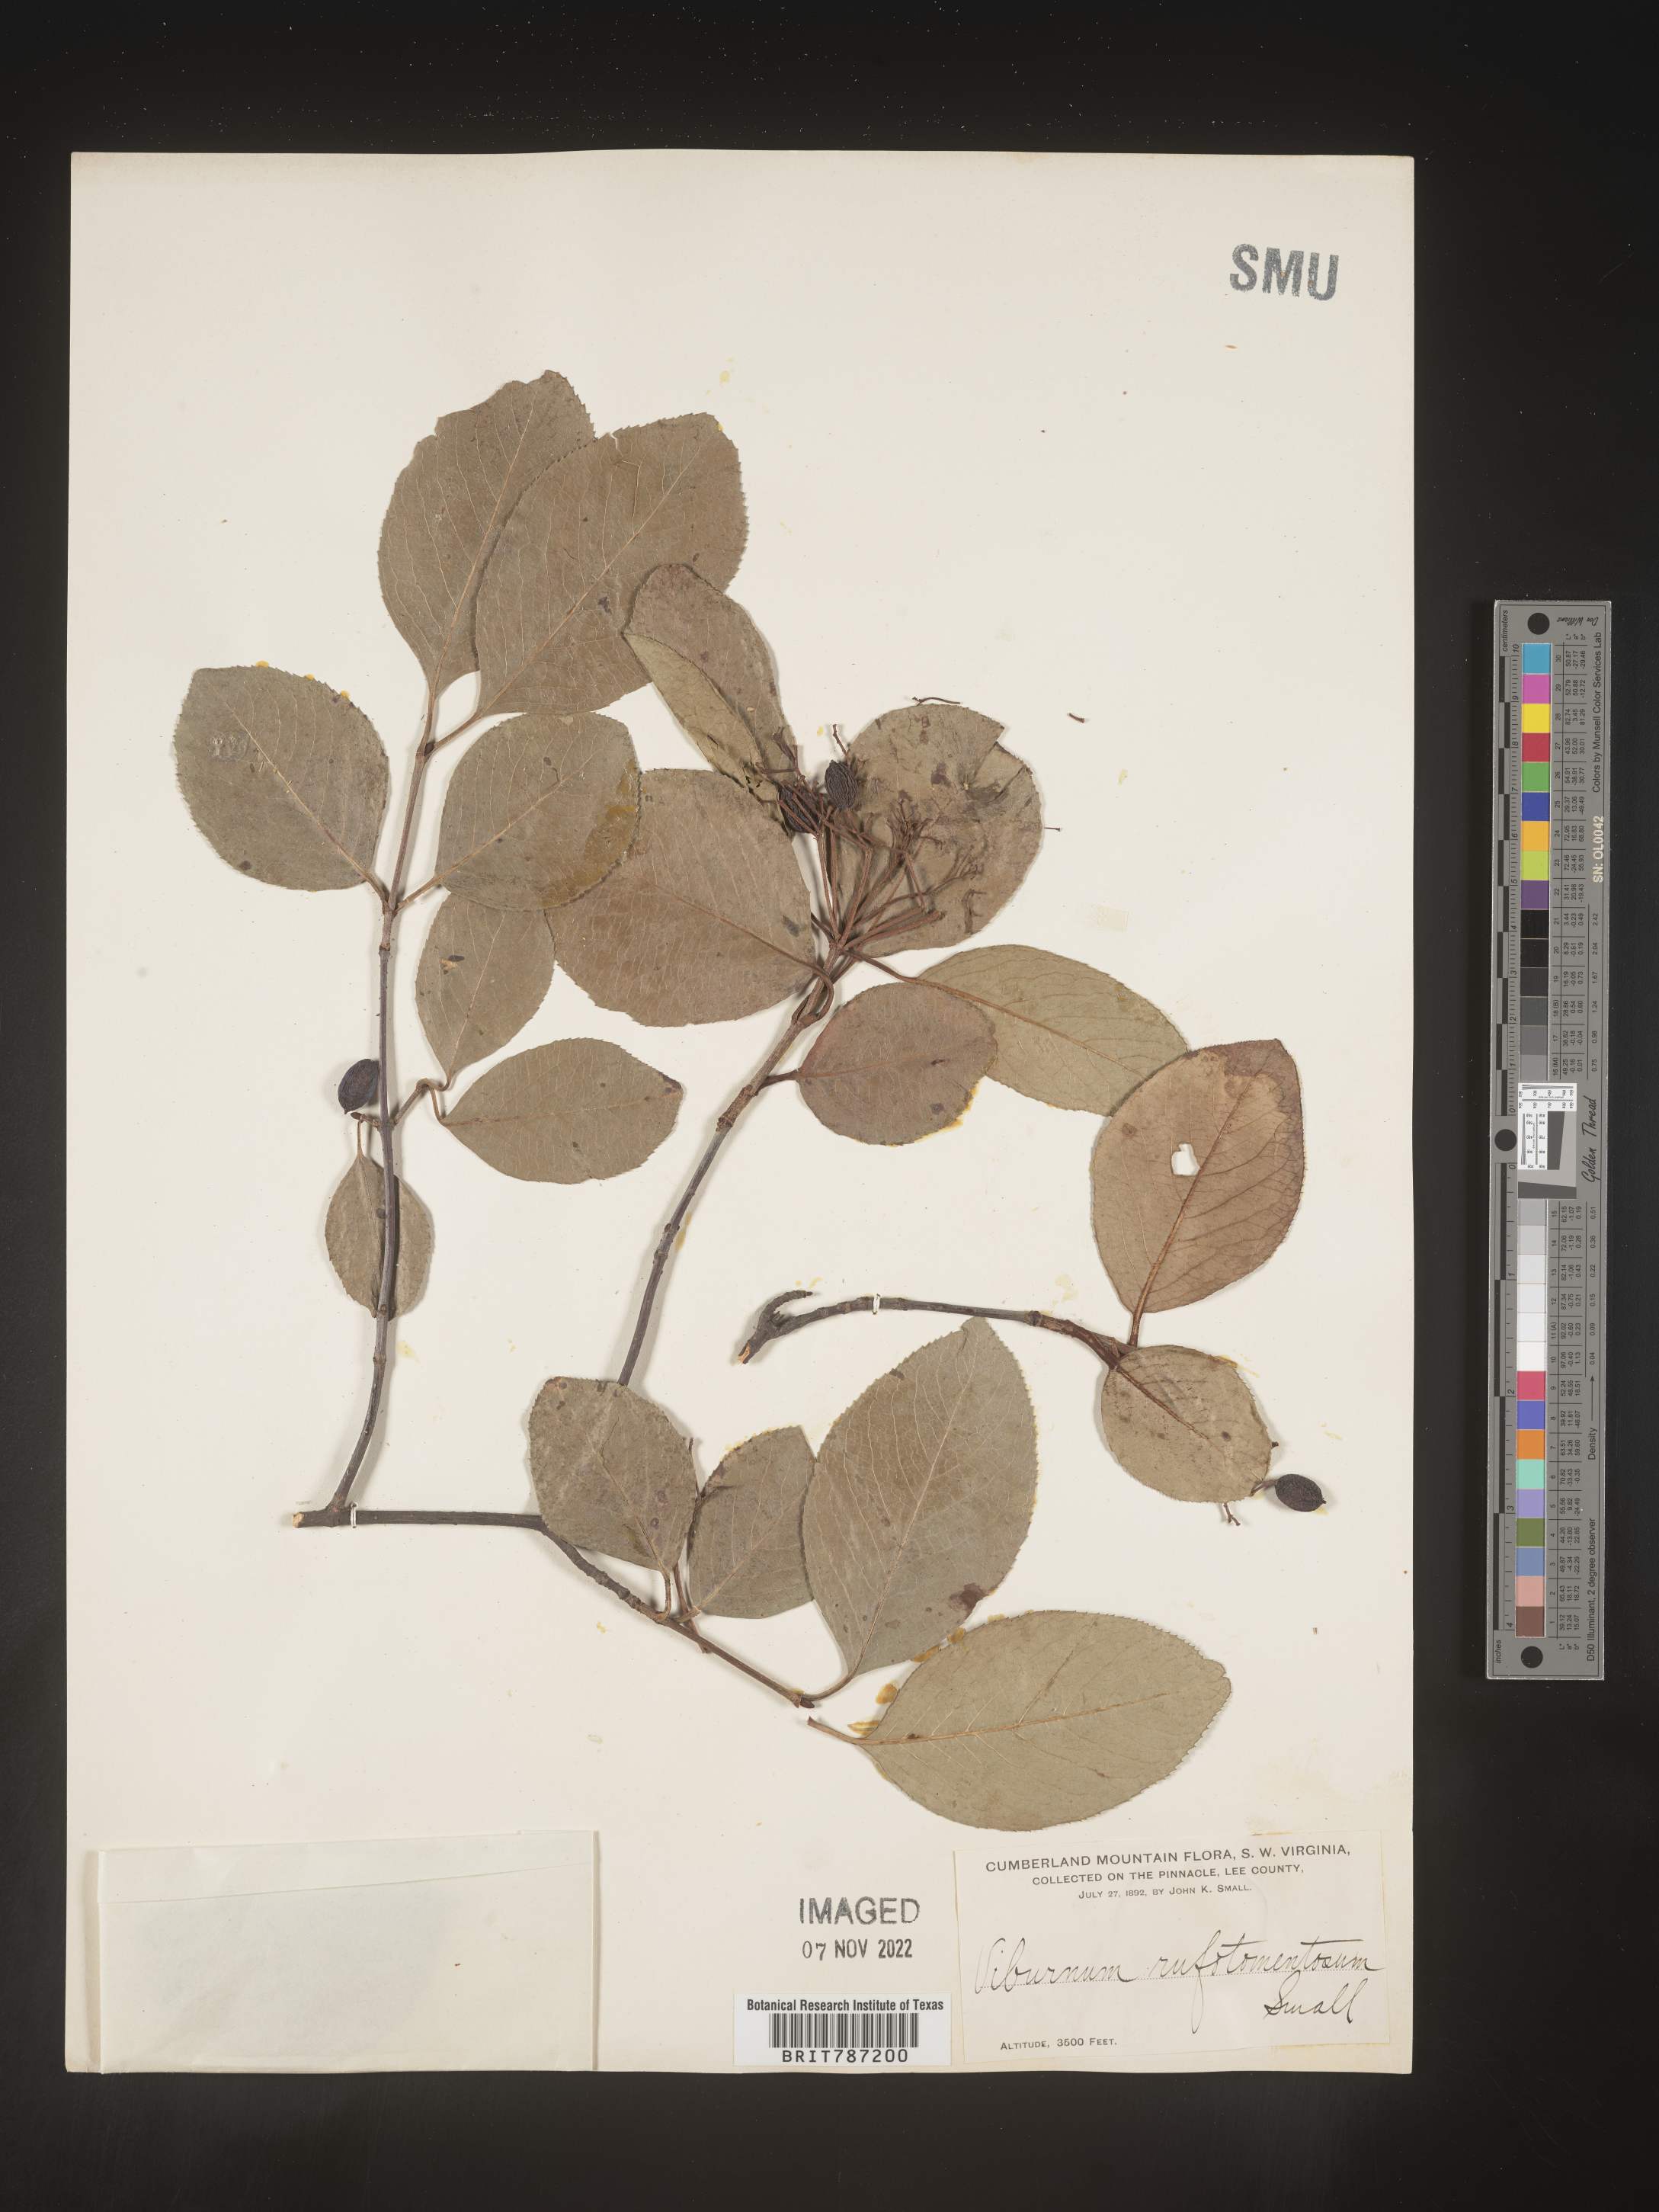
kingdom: Plantae
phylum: Tracheophyta
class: Magnoliopsida
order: Dipsacales
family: Viburnaceae
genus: Viburnum
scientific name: Viburnum rufidulum
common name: Blue haw
